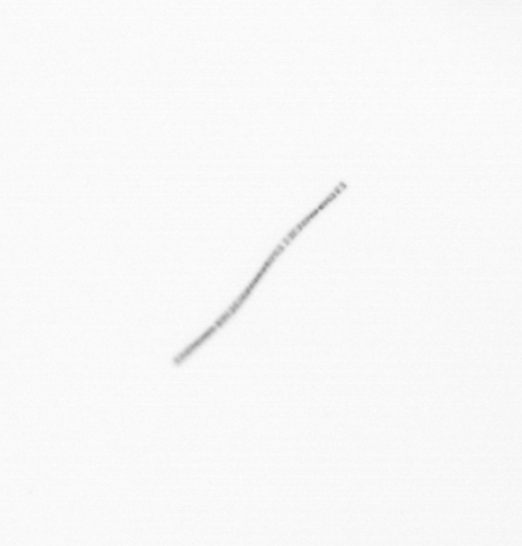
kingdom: Chromista
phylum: Ochrophyta
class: Bacillariophyceae
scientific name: Bacillariophyceae
